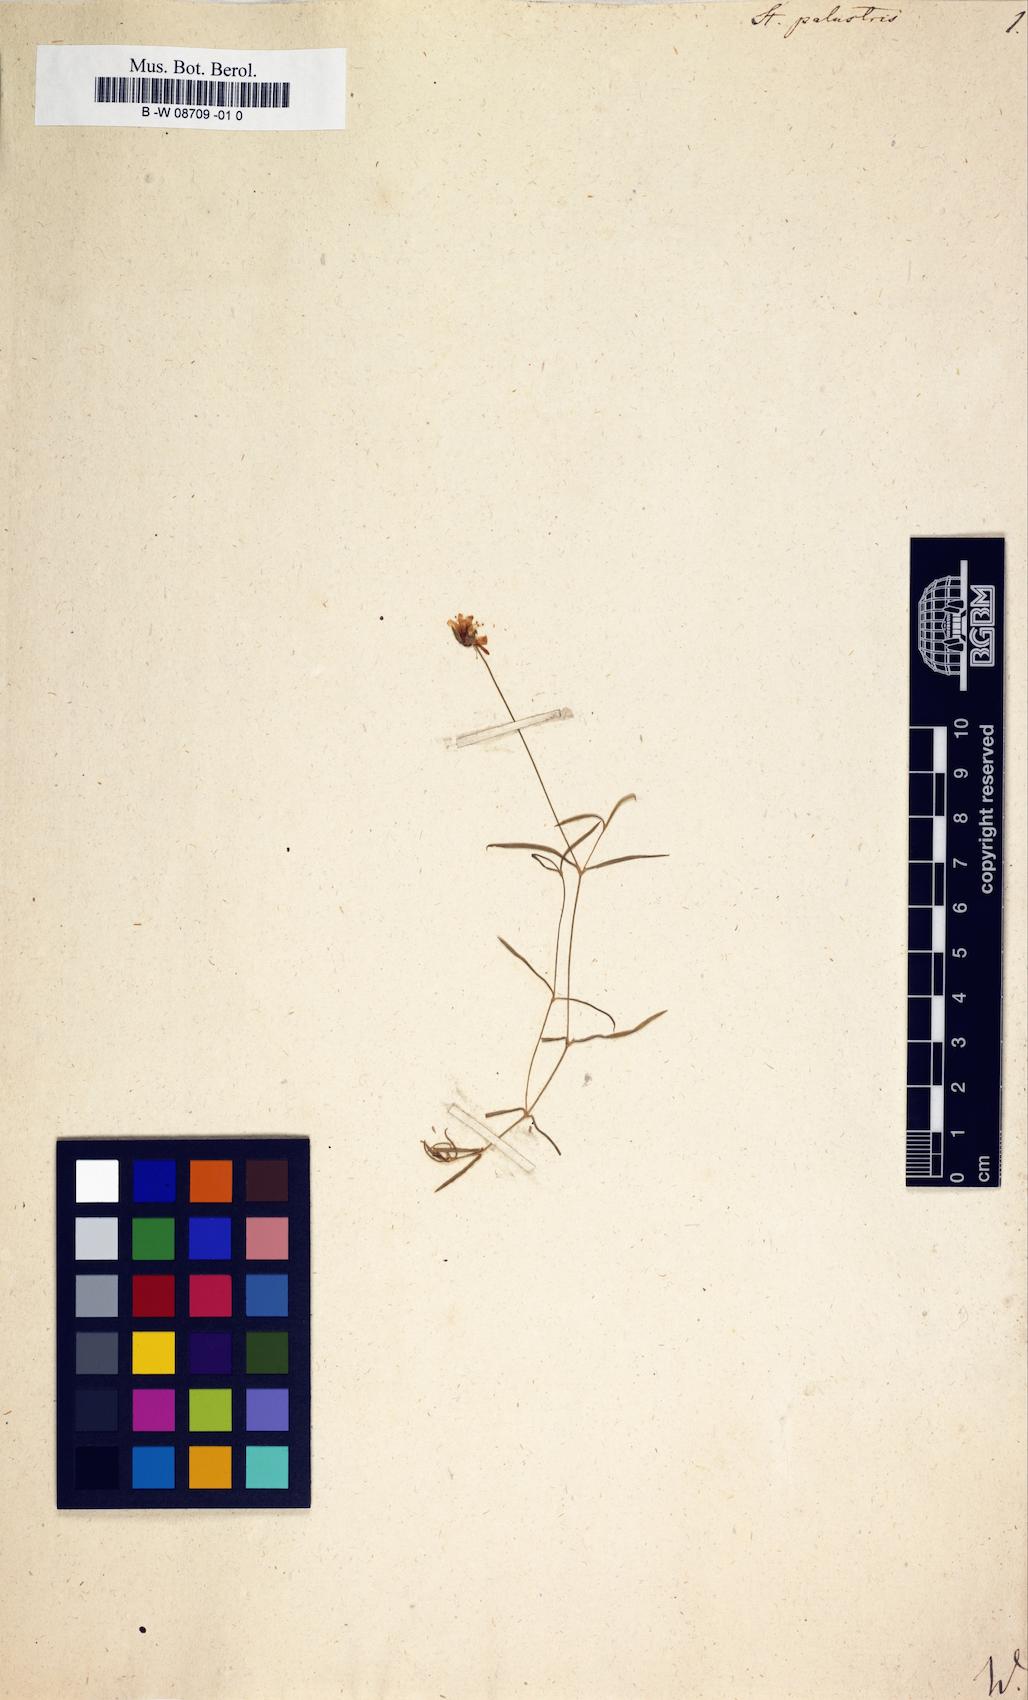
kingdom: Plantae
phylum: Tracheophyta
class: Magnoliopsida
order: Caryophyllales
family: Caryophyllaceae
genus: Stellaria
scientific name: Stellaria palustris
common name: Marsh stitchwort
